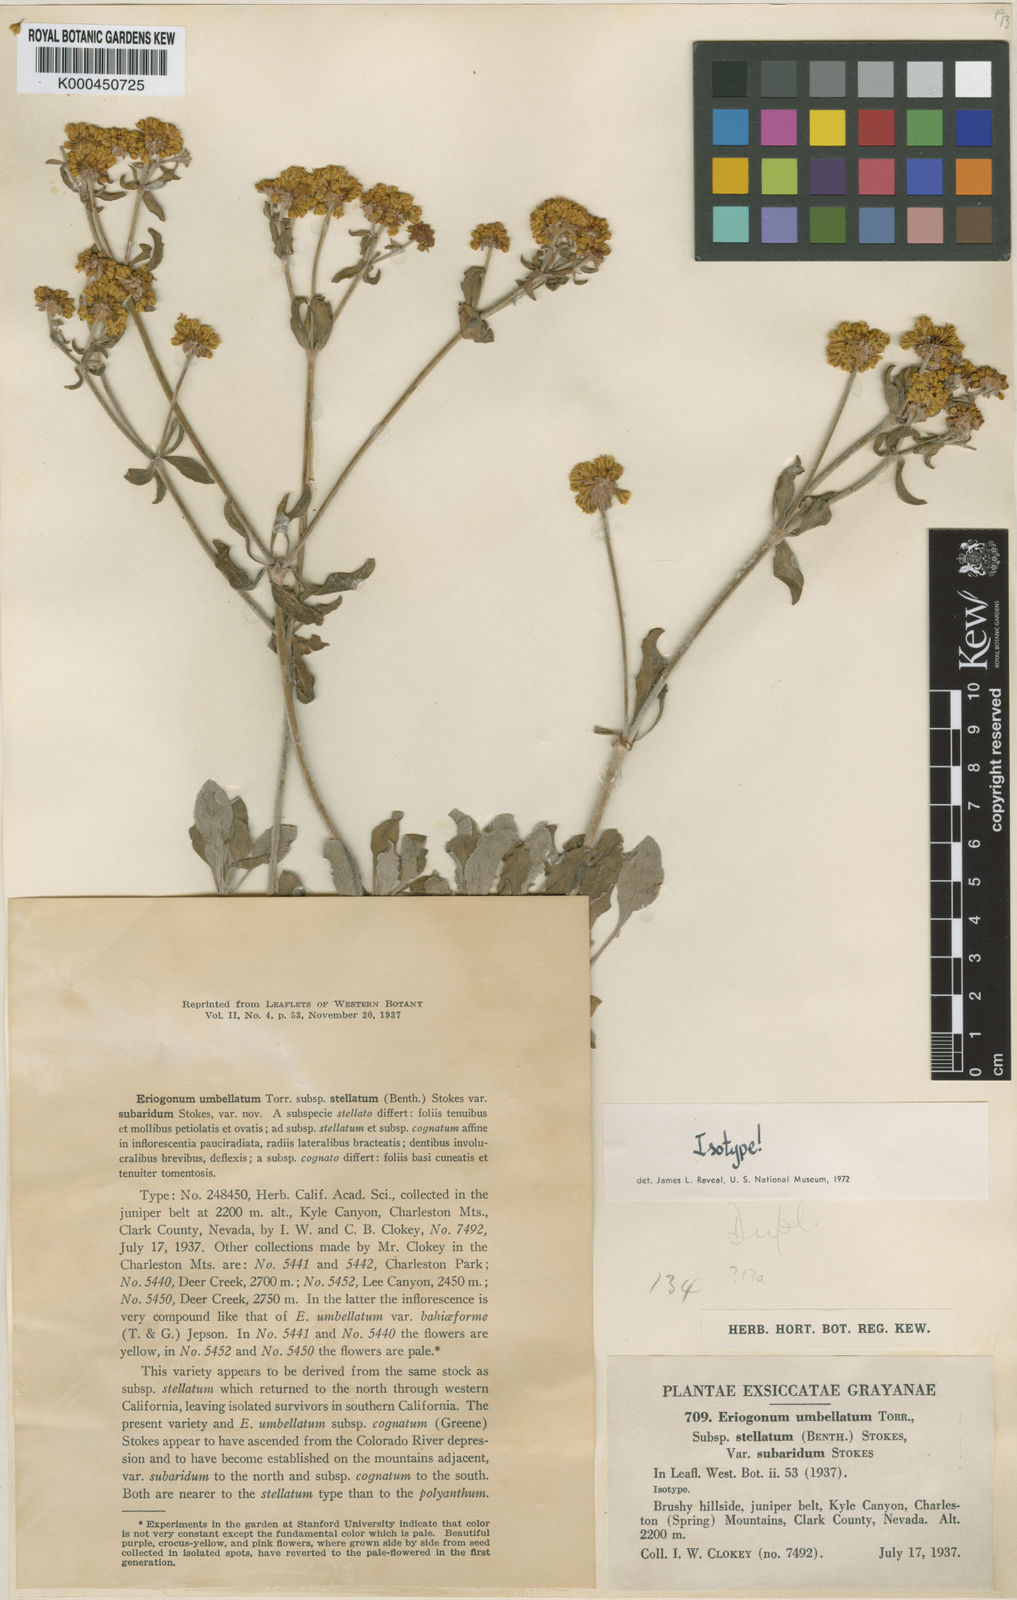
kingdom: Plantae
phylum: Tracheophyta
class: Magnoliopsida
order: Caryophyllales
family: Polygonaceae
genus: Eriogonum
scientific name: Eriogonum umbellatum
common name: Sulfur-buckwheat
